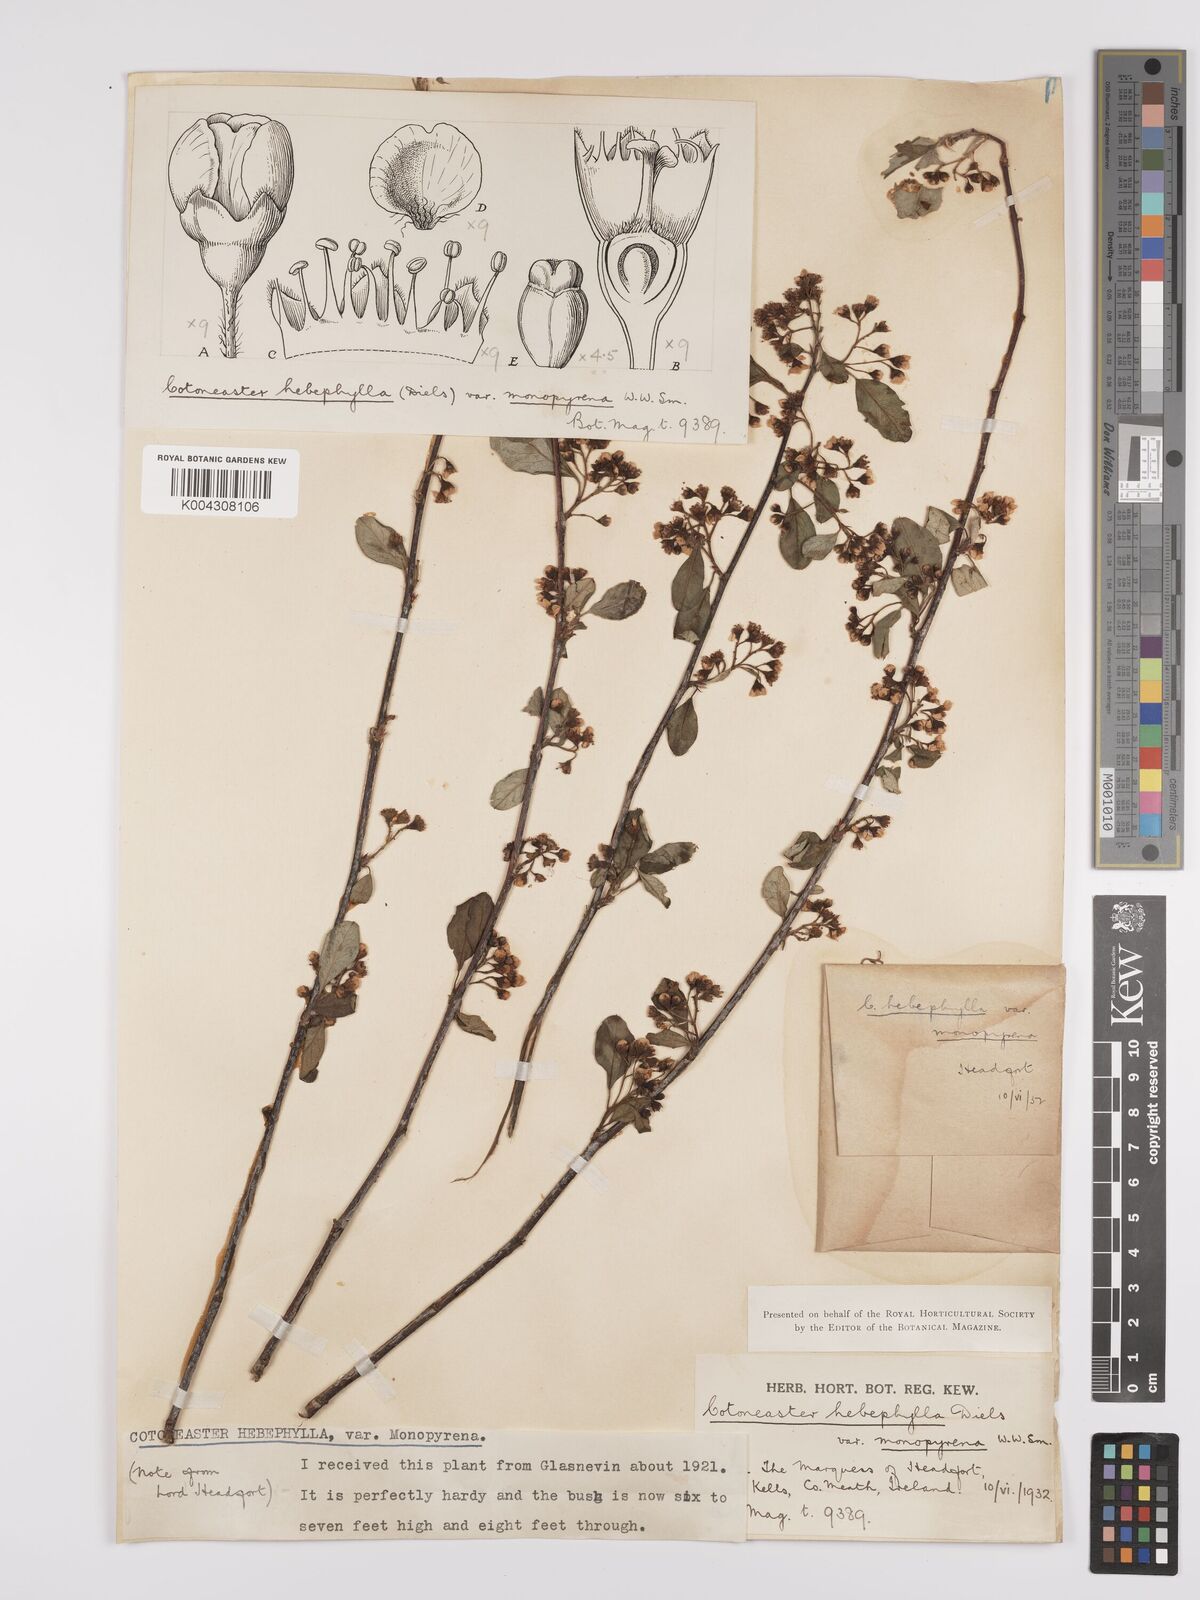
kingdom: Plantae
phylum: Tracheophyta
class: Magnoliopsida
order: Rosales
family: Rosaceae
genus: Cotoneaster
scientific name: Cotoneaster hebephyllus
